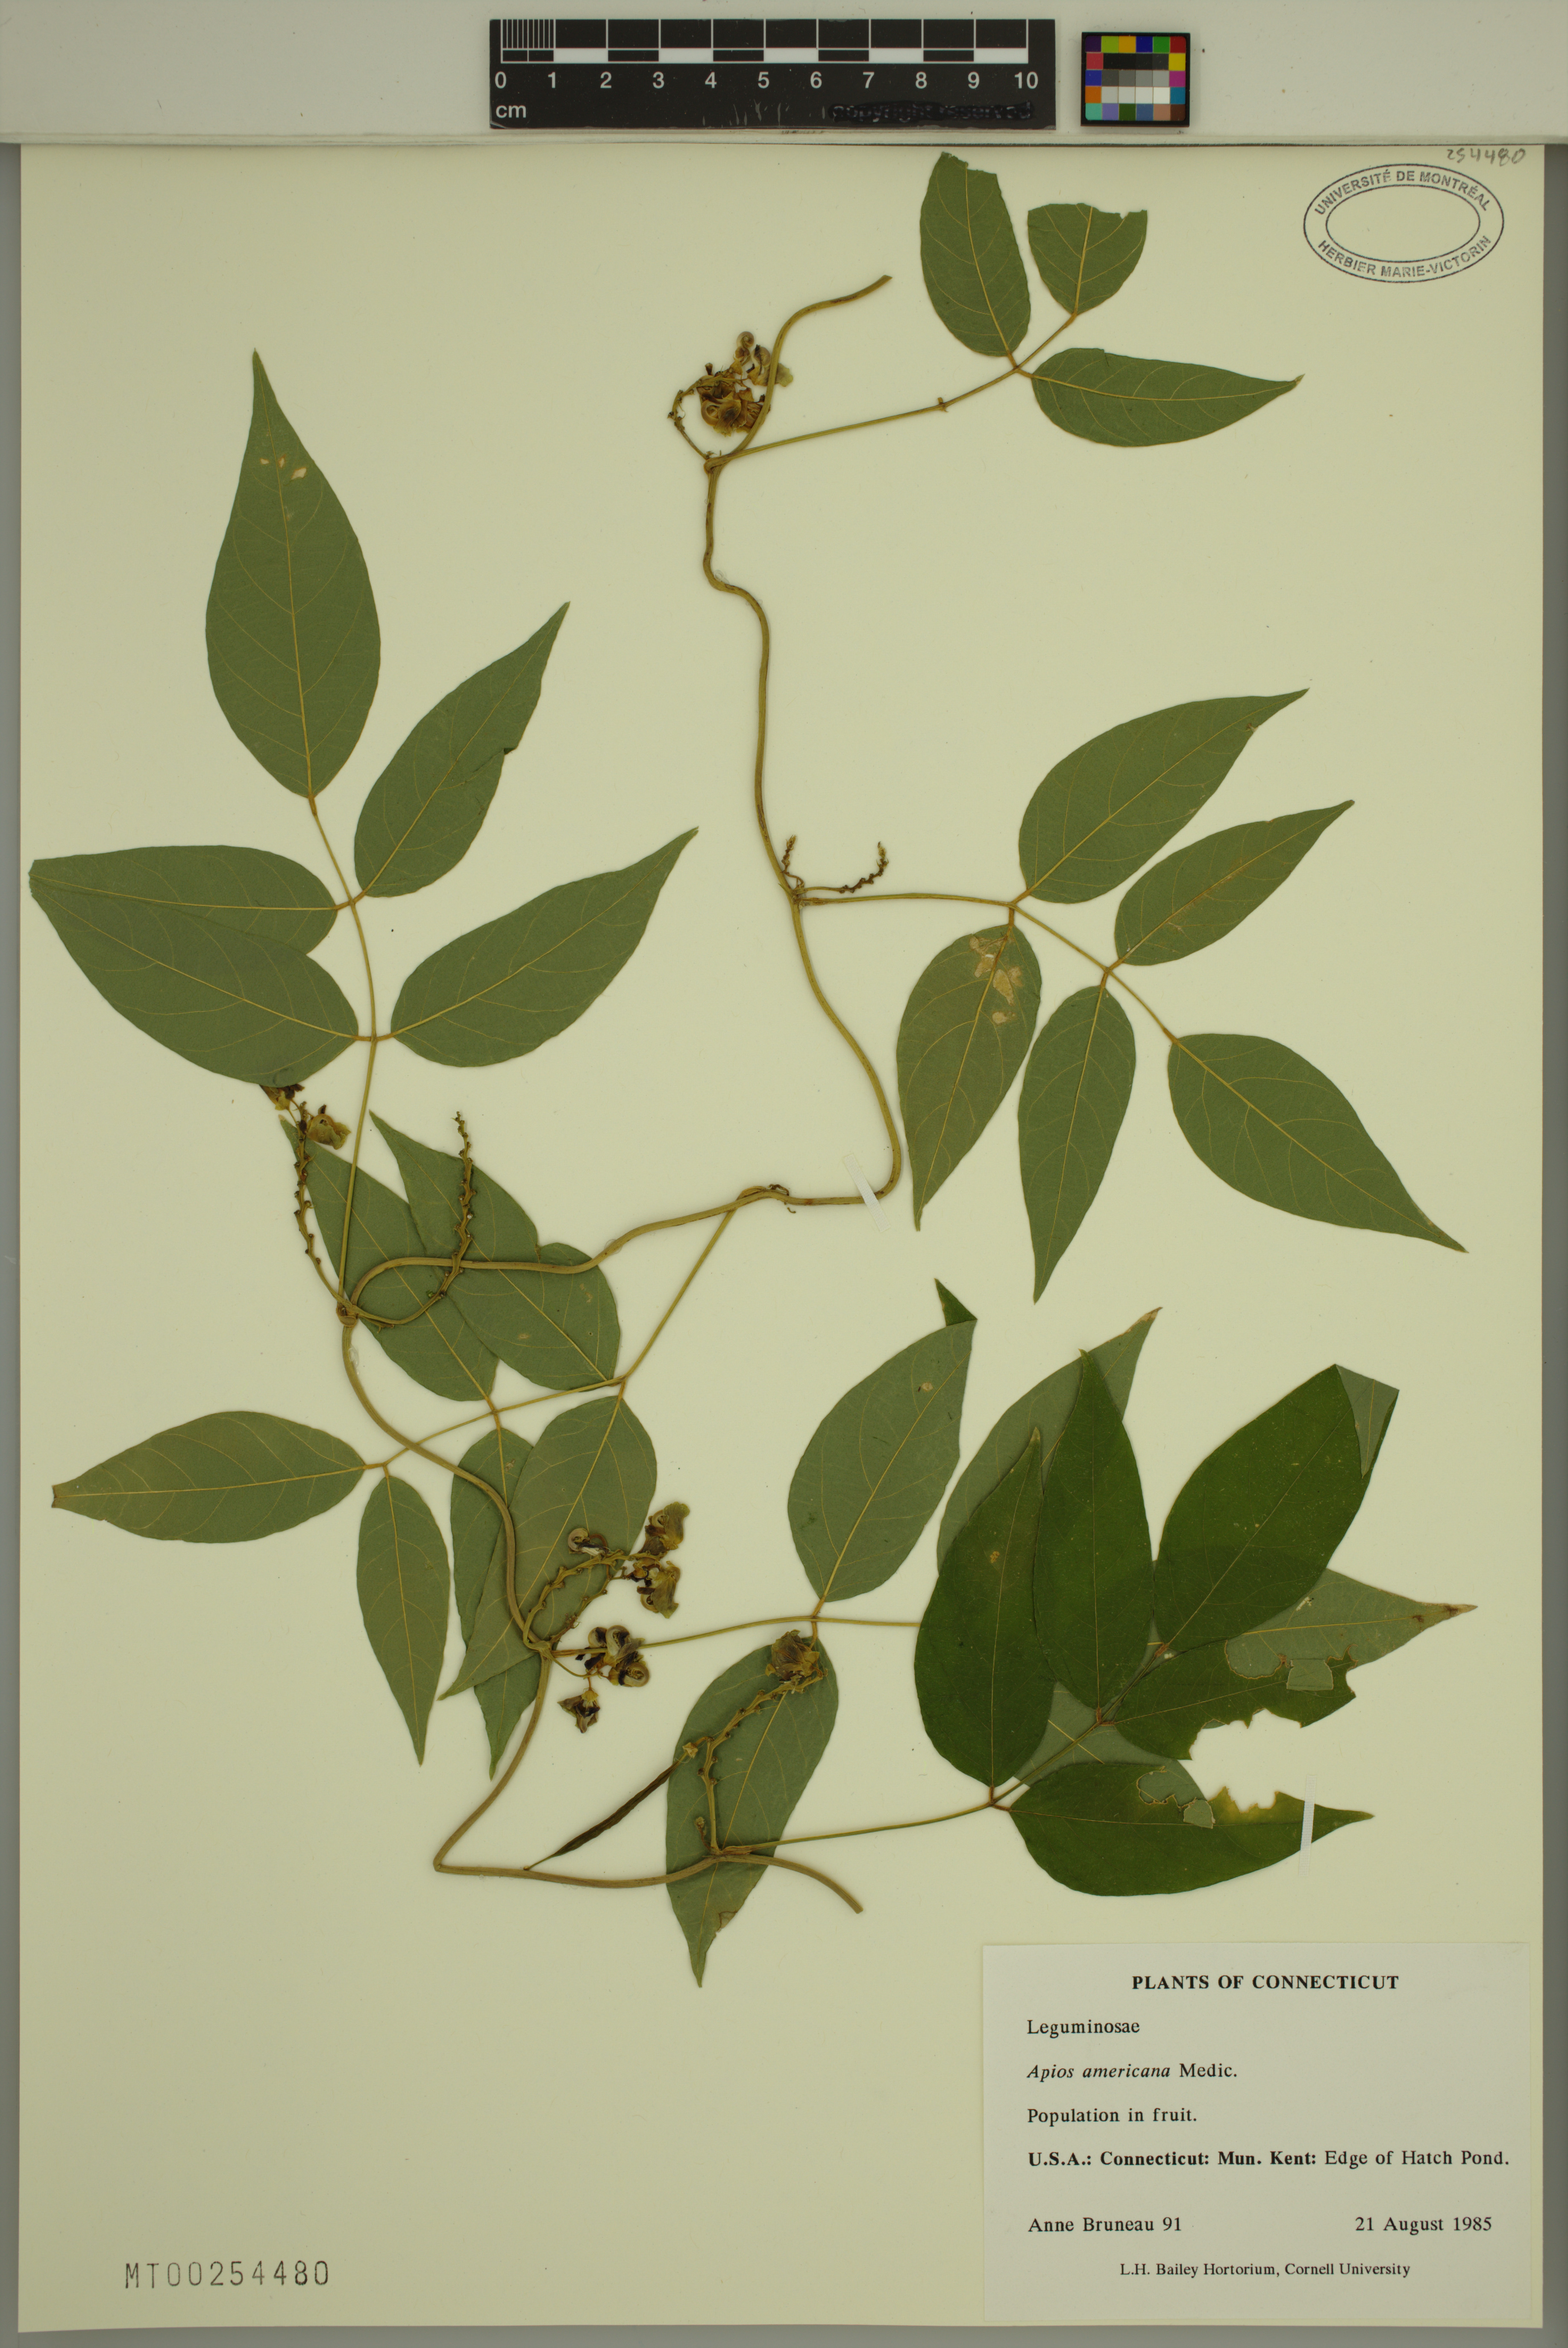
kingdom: Plantae
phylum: Tracheophyta
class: Magnoliopsida
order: Fabales
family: Fabaceae
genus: Apios
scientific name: Apios americana
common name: American potato-bean
